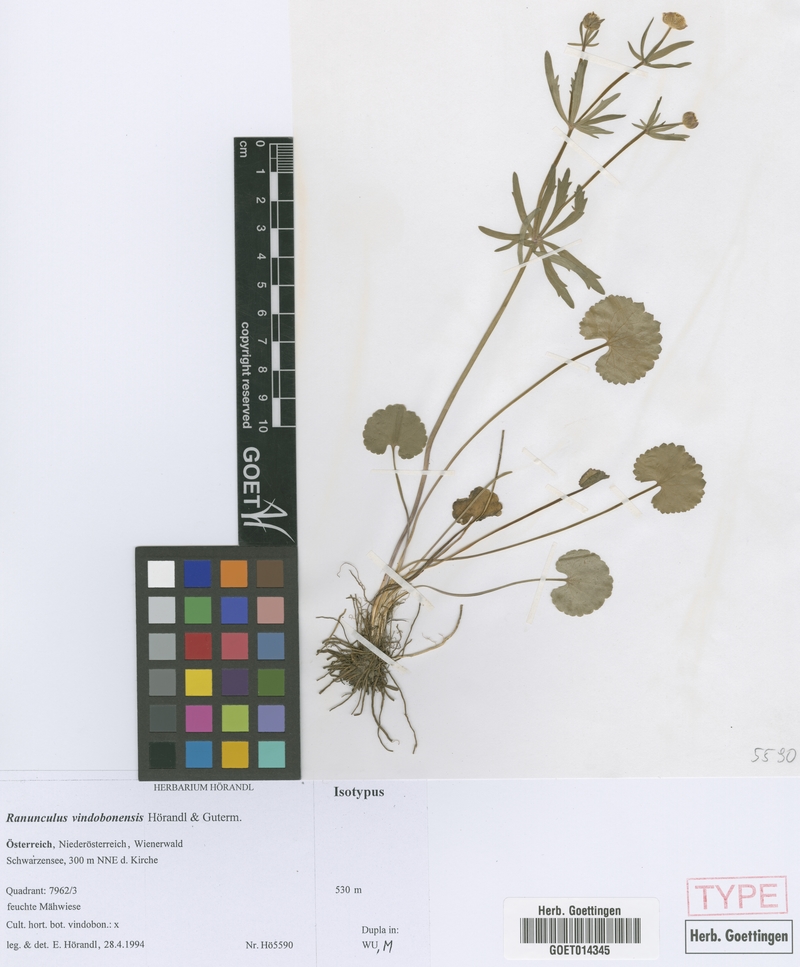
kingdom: Plantae
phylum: Tracheophyta
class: Magnoliopsida
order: Ranunculales
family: Ranunculaceae
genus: Ranunculus
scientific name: Ranunculus vindobonensis
